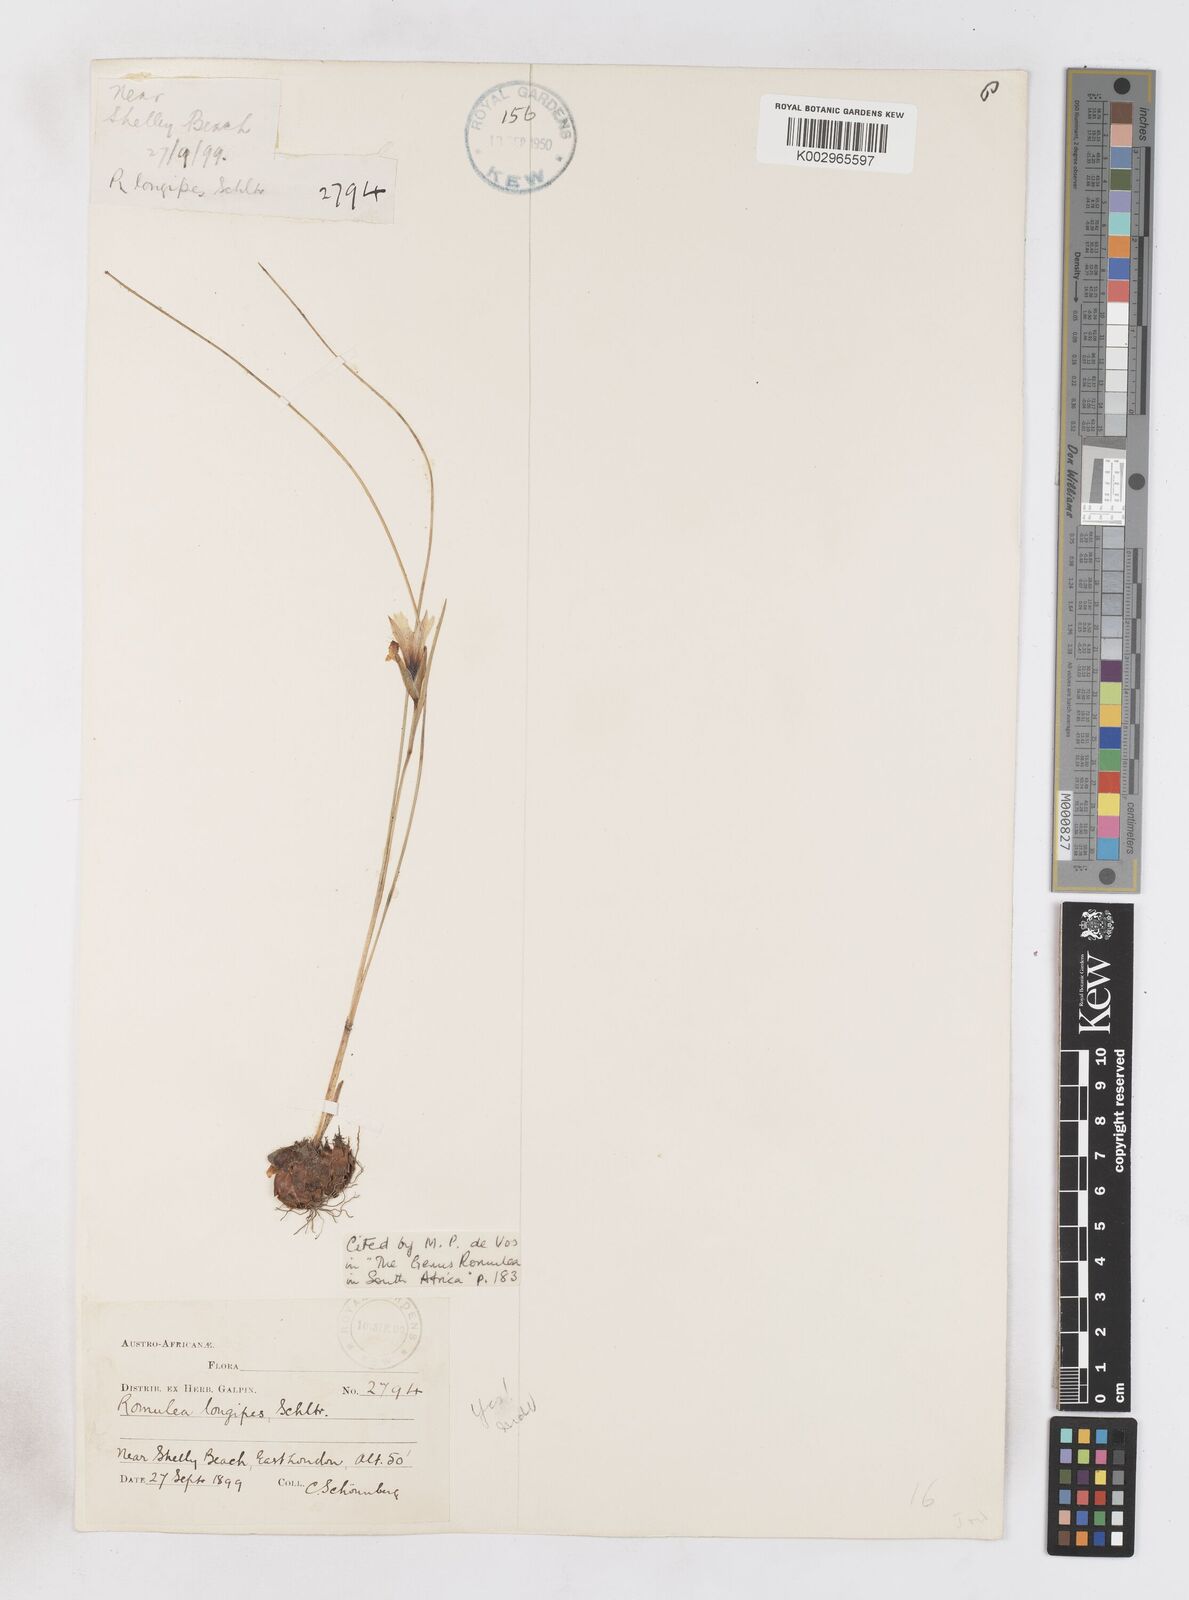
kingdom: Plantae
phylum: Tracheophyta
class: Liliopsida
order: Asparagales
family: Iridaceae
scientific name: Iridaceae
